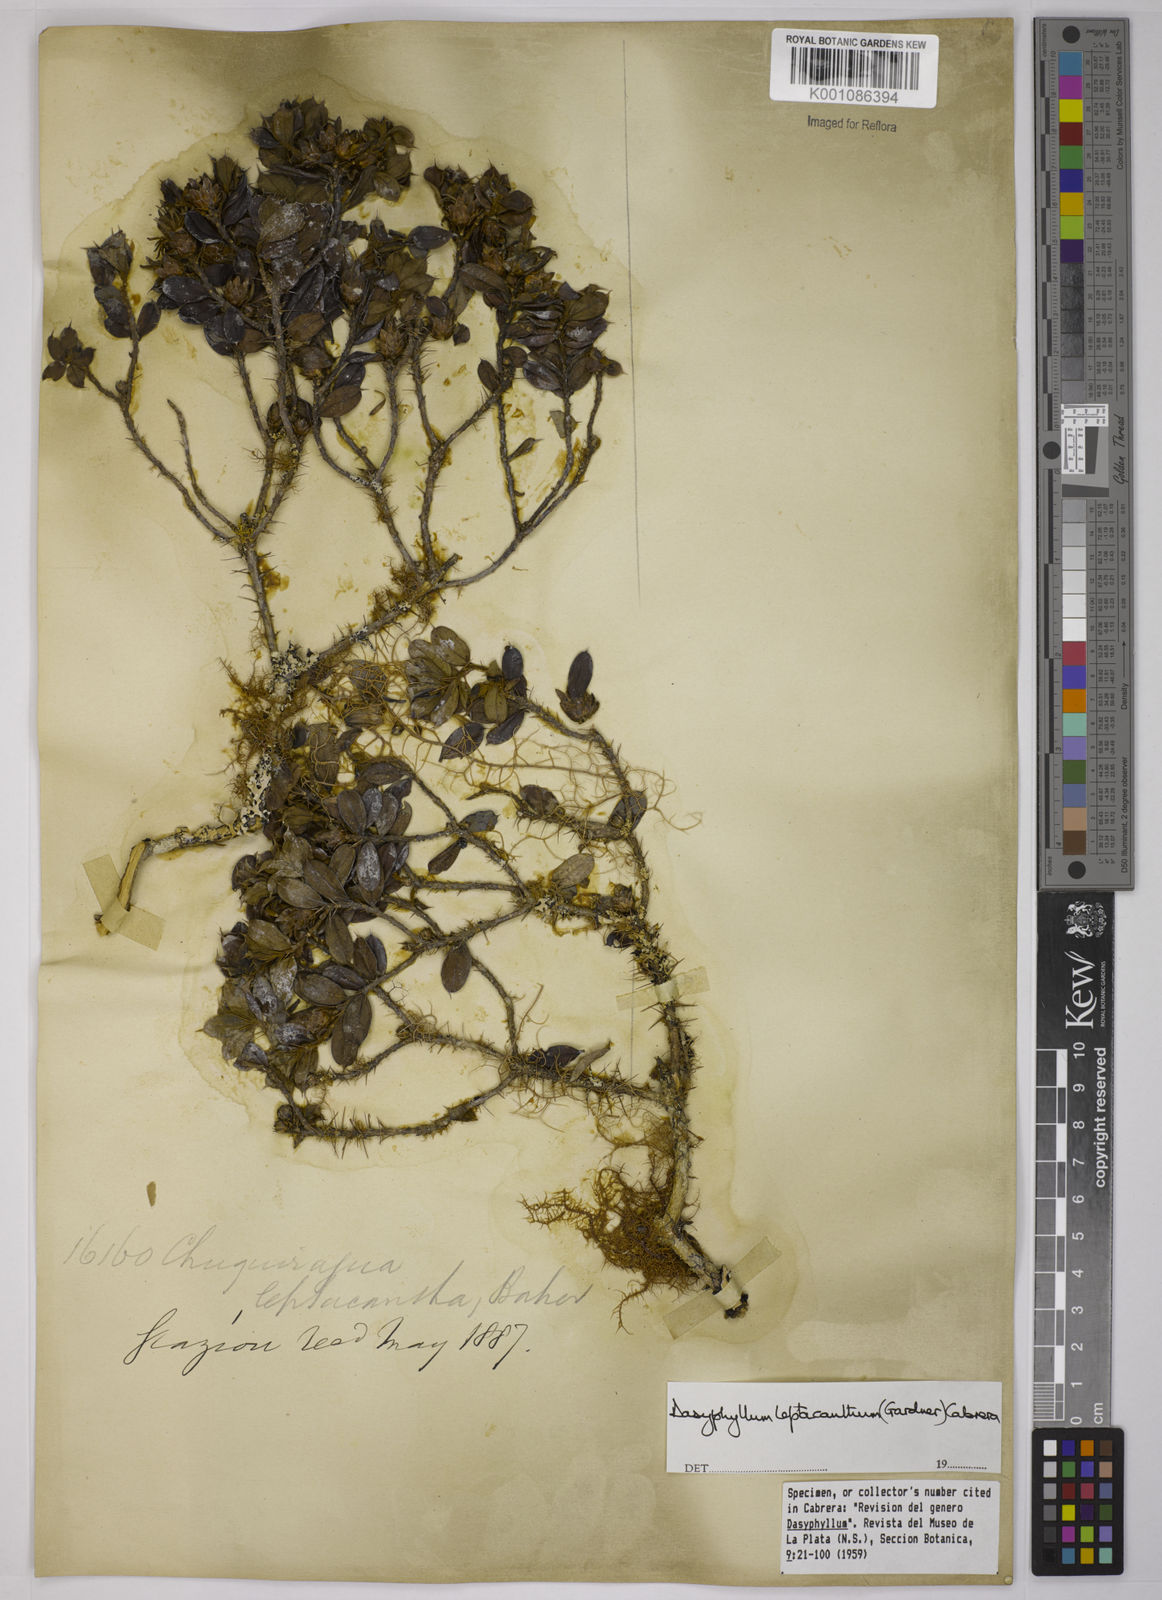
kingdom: Plantae
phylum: Tracheophyta
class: Magnoliopsida
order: Asterales
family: Asteraceae
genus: Dasyphyllum
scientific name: Dasyphyllum leptacanthum
